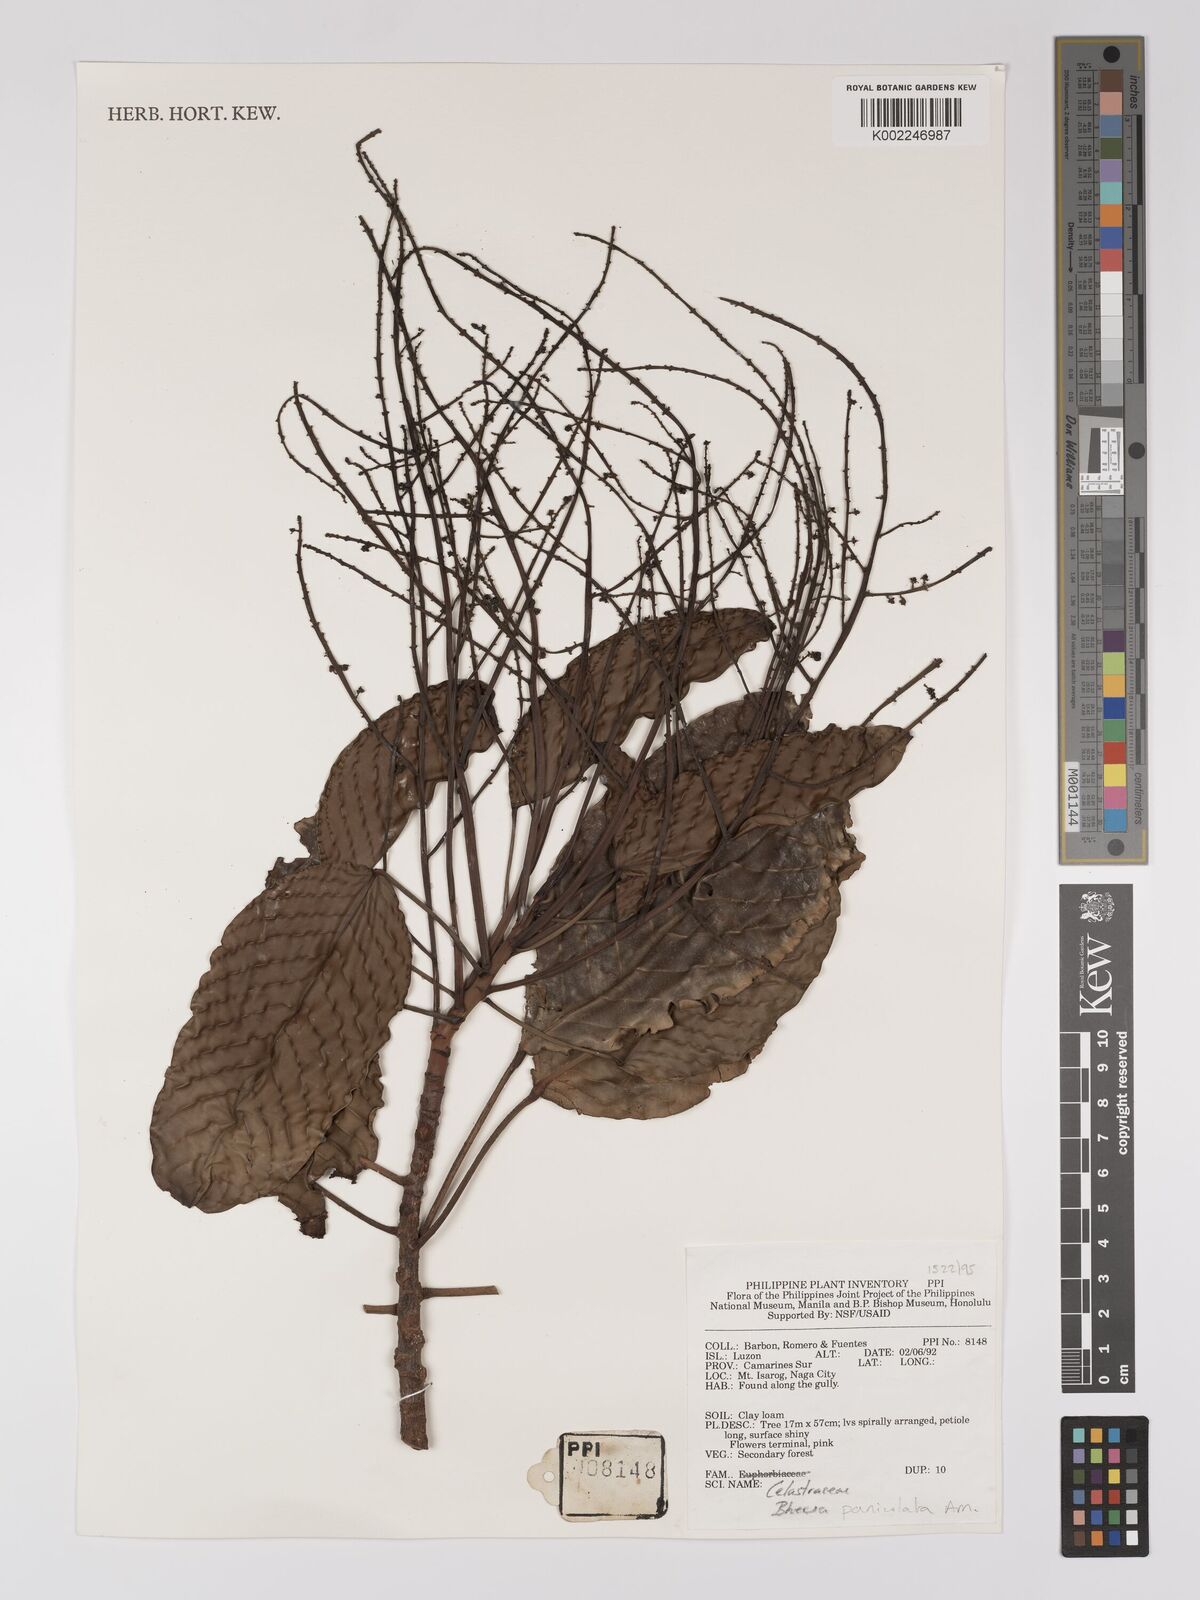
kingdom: Plantae
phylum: Tracheophyta
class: Magnoliopsida
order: Malpighiales
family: Centroplacaceae
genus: Bhesa
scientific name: Bhesa paniculata
